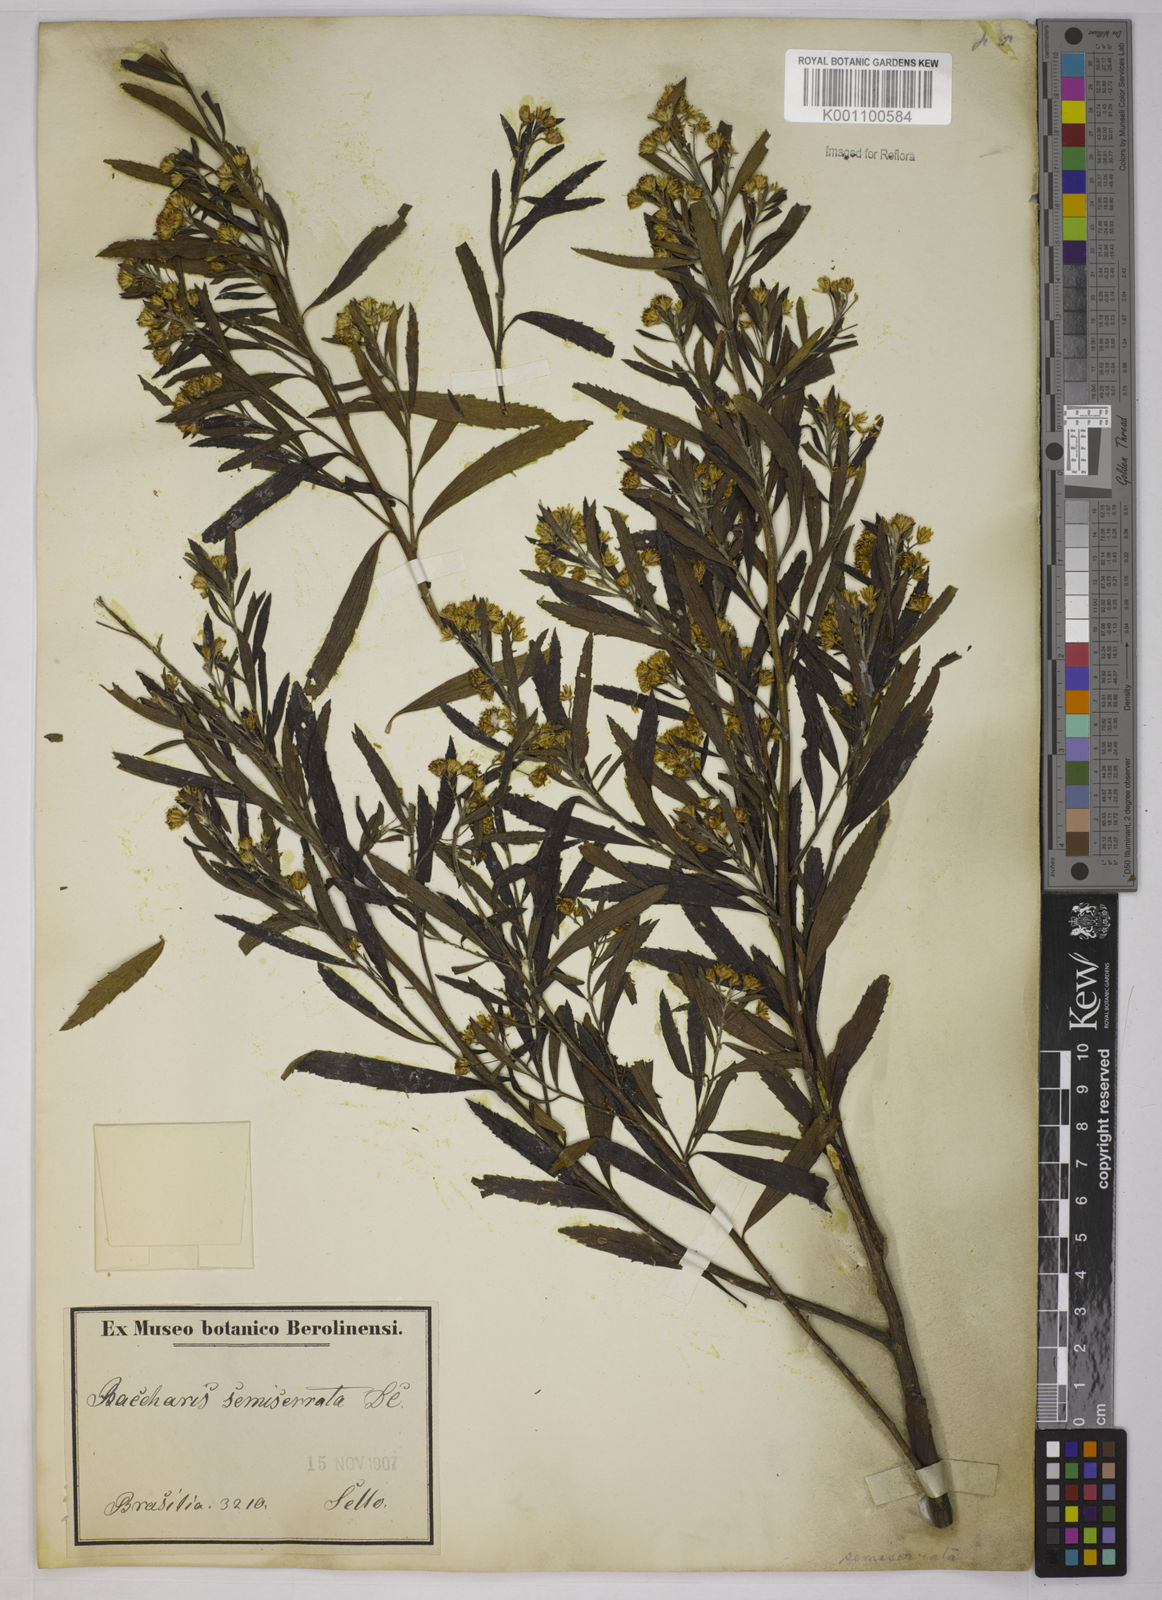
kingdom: Plantae
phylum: Tracheophyta
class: Magnoliopsida
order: Asterales
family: Asteraceae
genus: Baccharis
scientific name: Baccharis gnidiifolia
